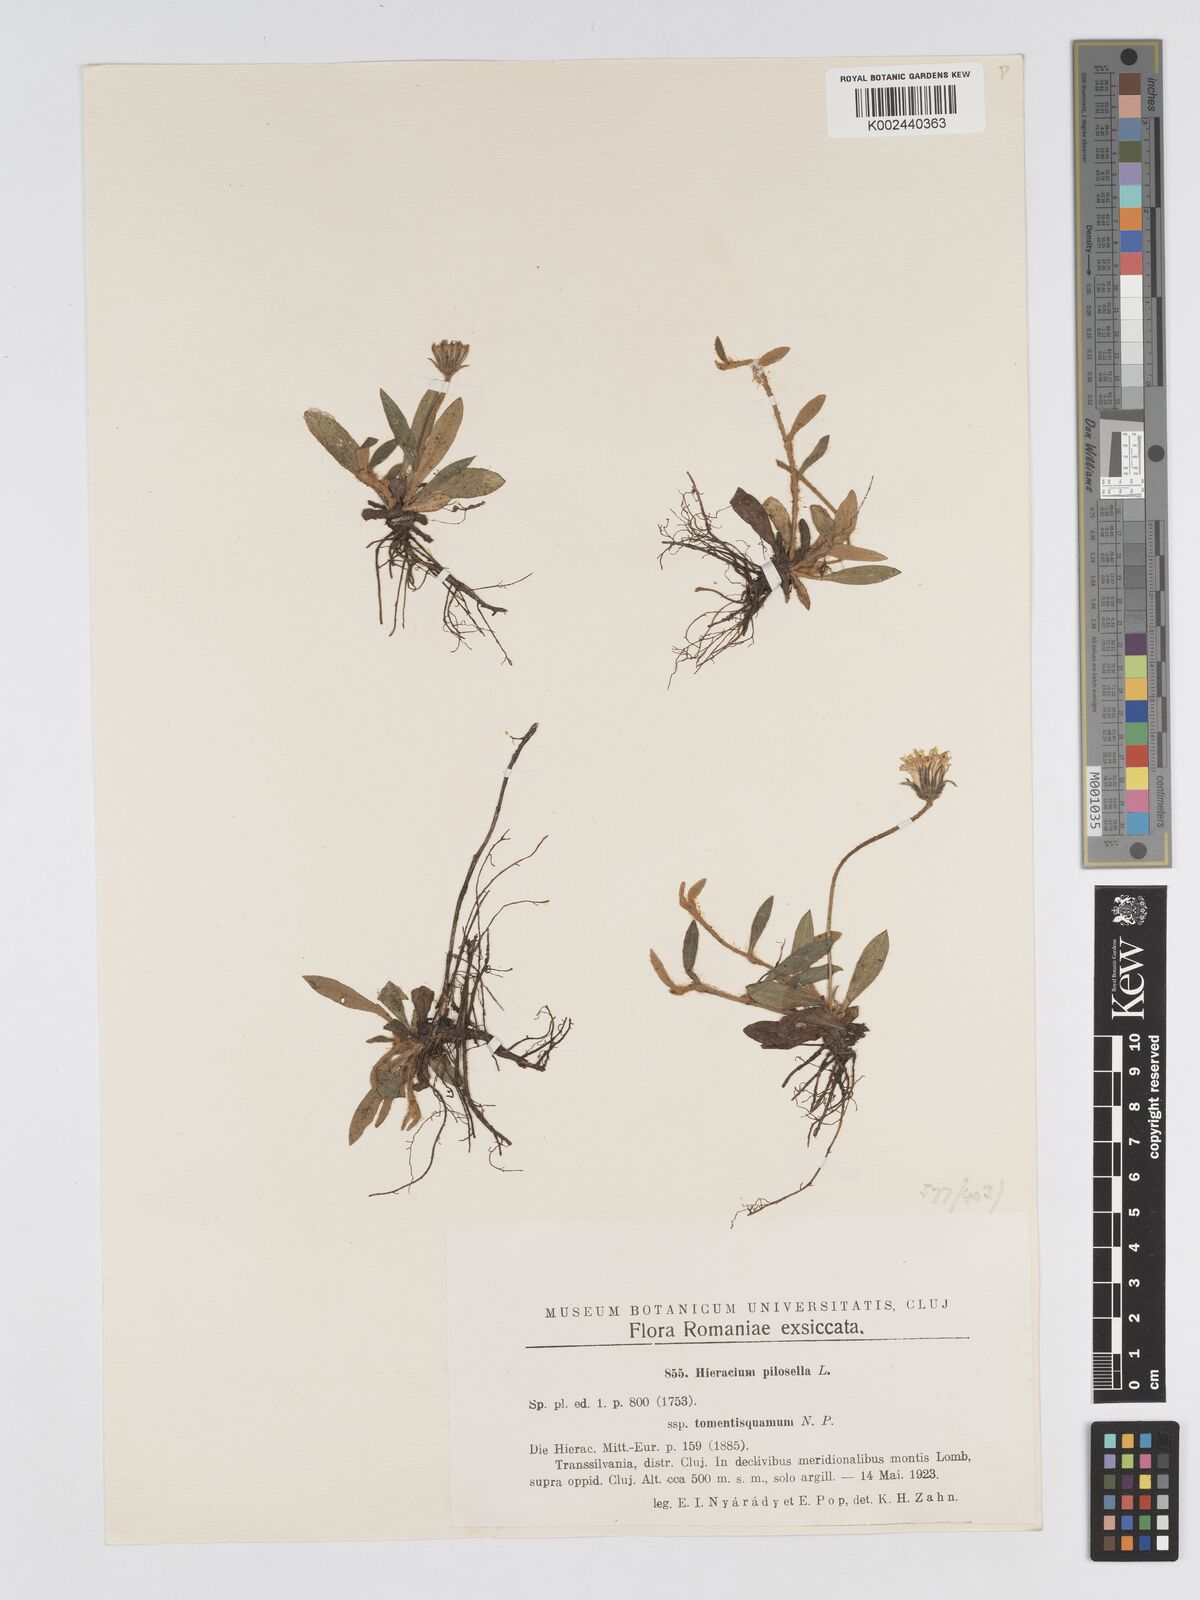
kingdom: Plantae
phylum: Tracheophyta
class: Magnoliopsida
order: Asterales
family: Asteraceae
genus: Pilosella
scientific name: Pilosella officinarum
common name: Mouse-ear hawkweed
